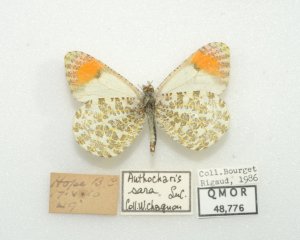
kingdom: Animalia
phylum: Arthropoda
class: Insecta
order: Lepidoptera
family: Pieridae
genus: Anthocharis
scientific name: Anthocharis sara
